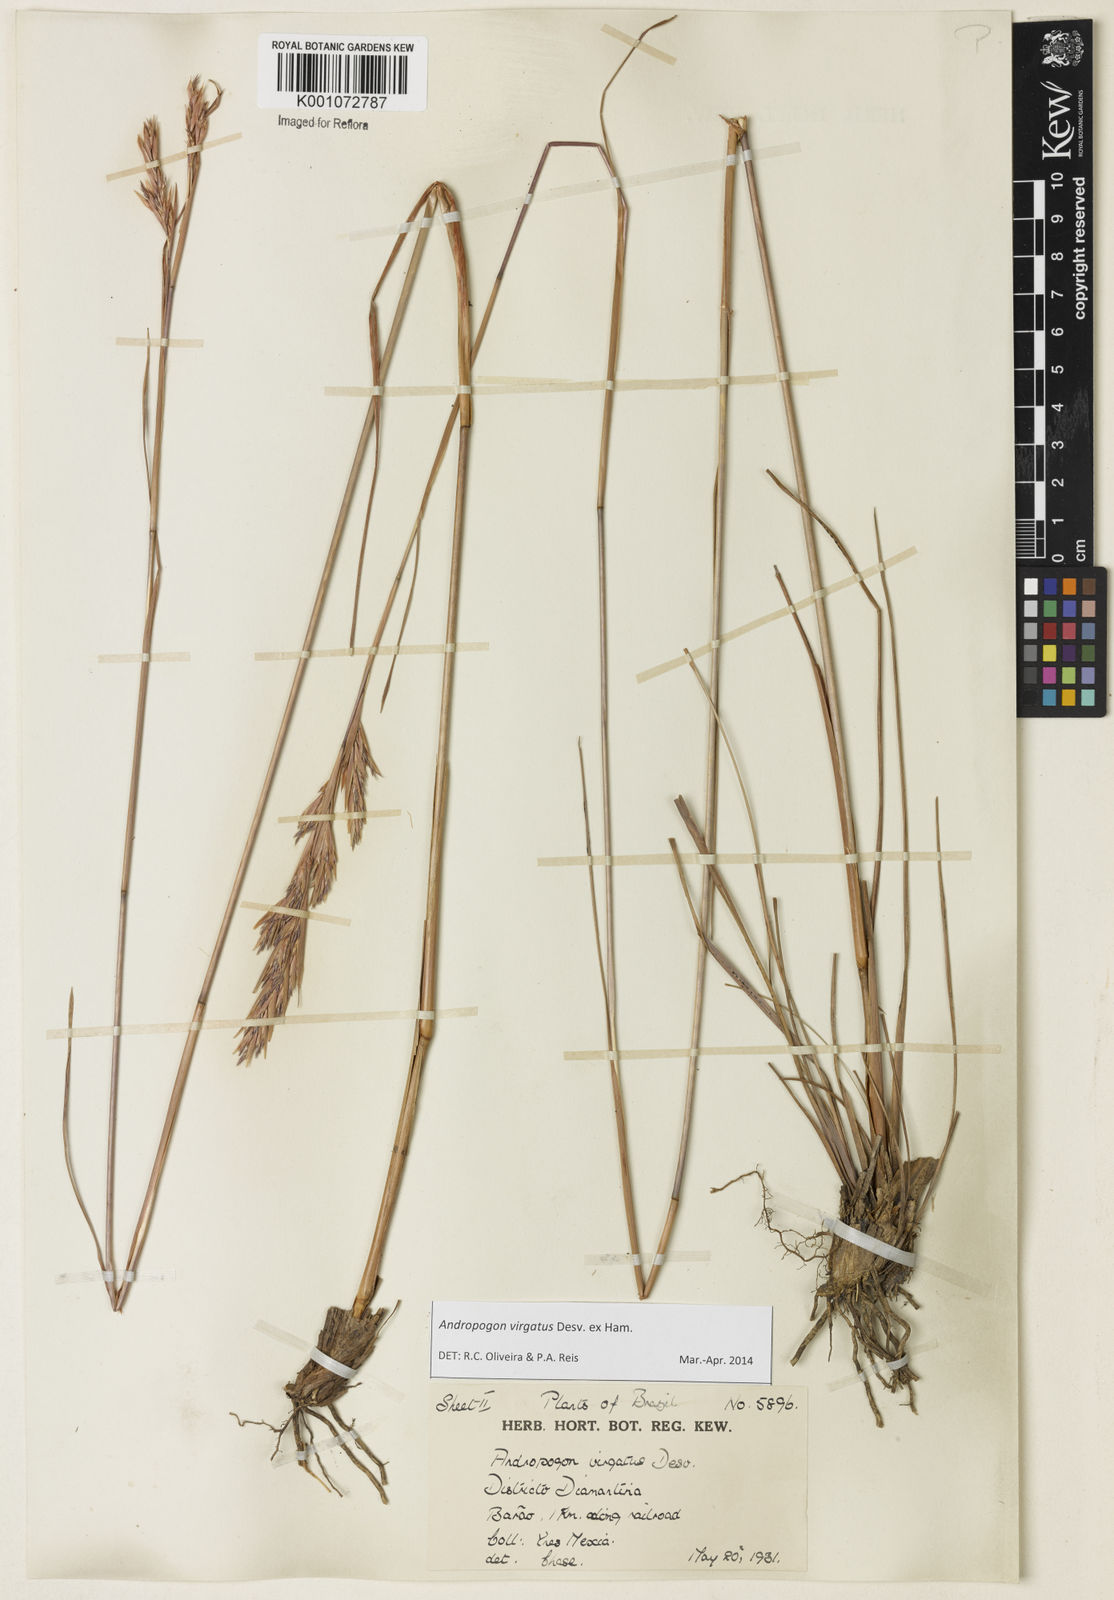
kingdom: Plantae
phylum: Tracheophyta
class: Liliopsida
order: Poales
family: Poaceae
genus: Andropogon
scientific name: Andropogon virgatus
